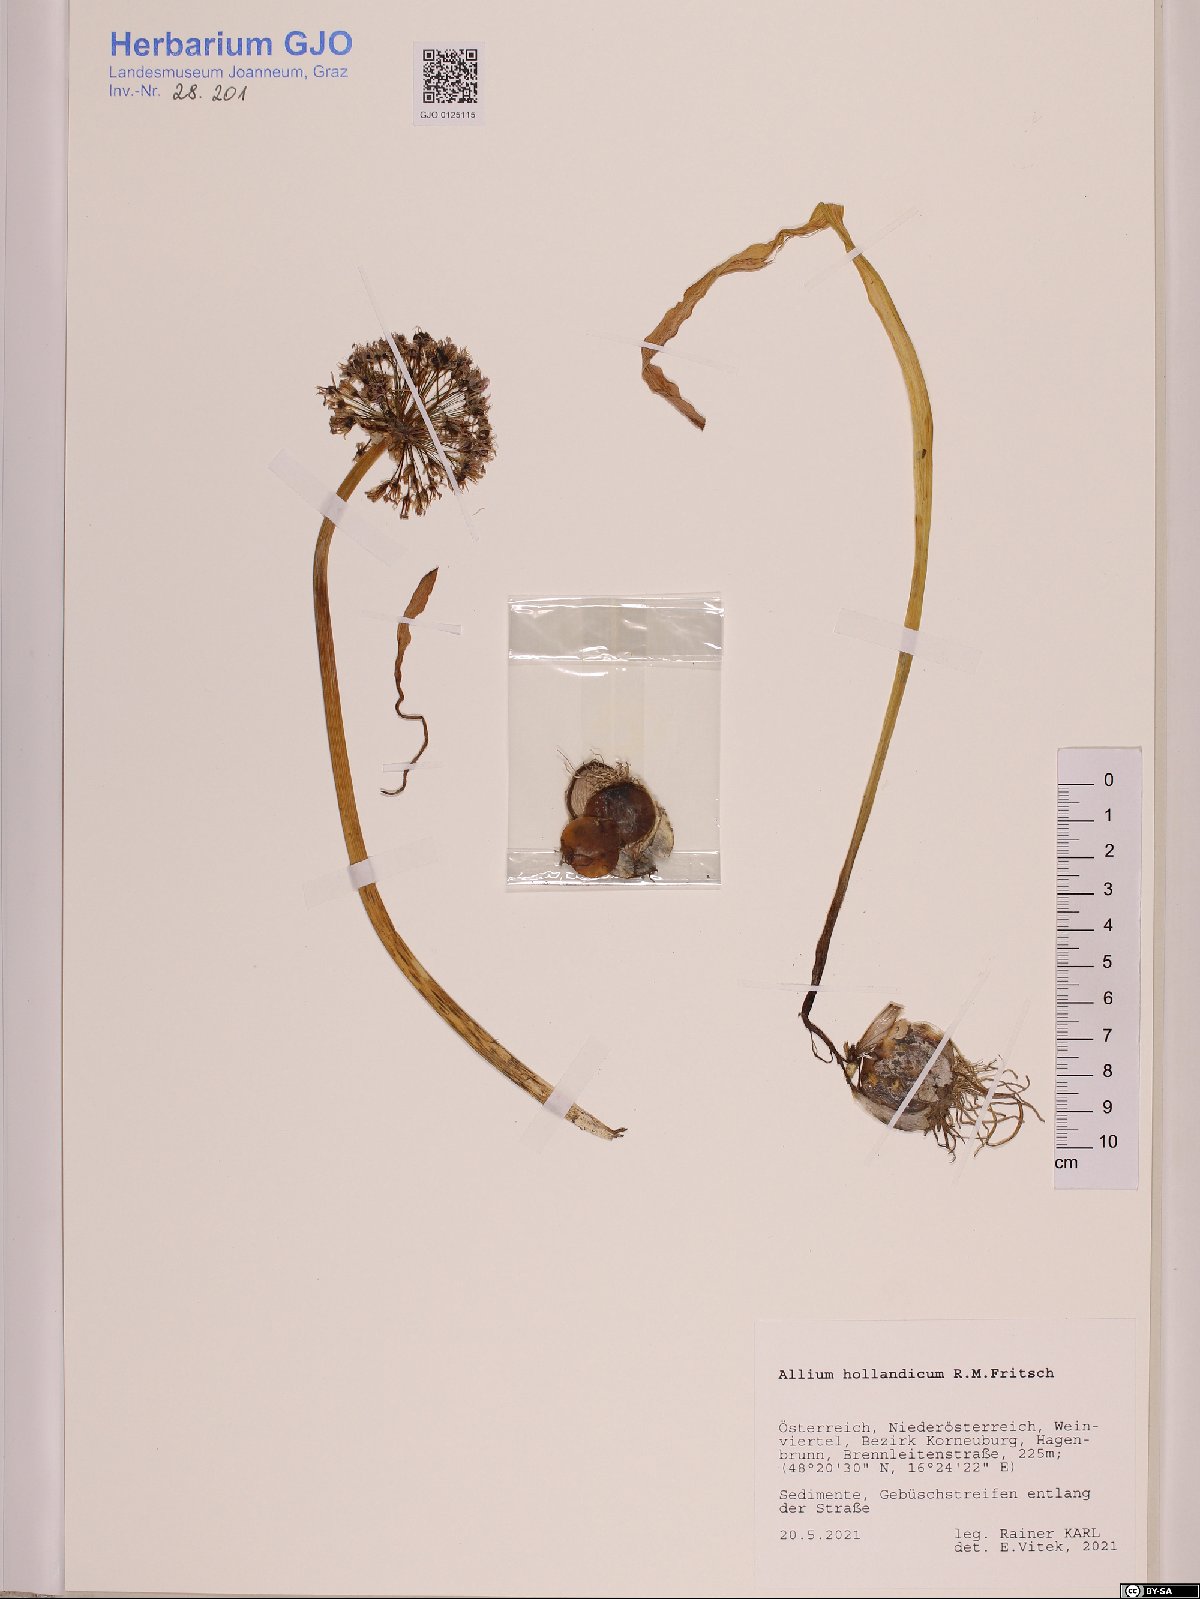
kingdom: Plantae
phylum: Tracheophyta
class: Liliopsida
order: Asparagales
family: Amaryllidaceae
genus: Allium
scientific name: Allium hollandicum
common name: Persian onion
